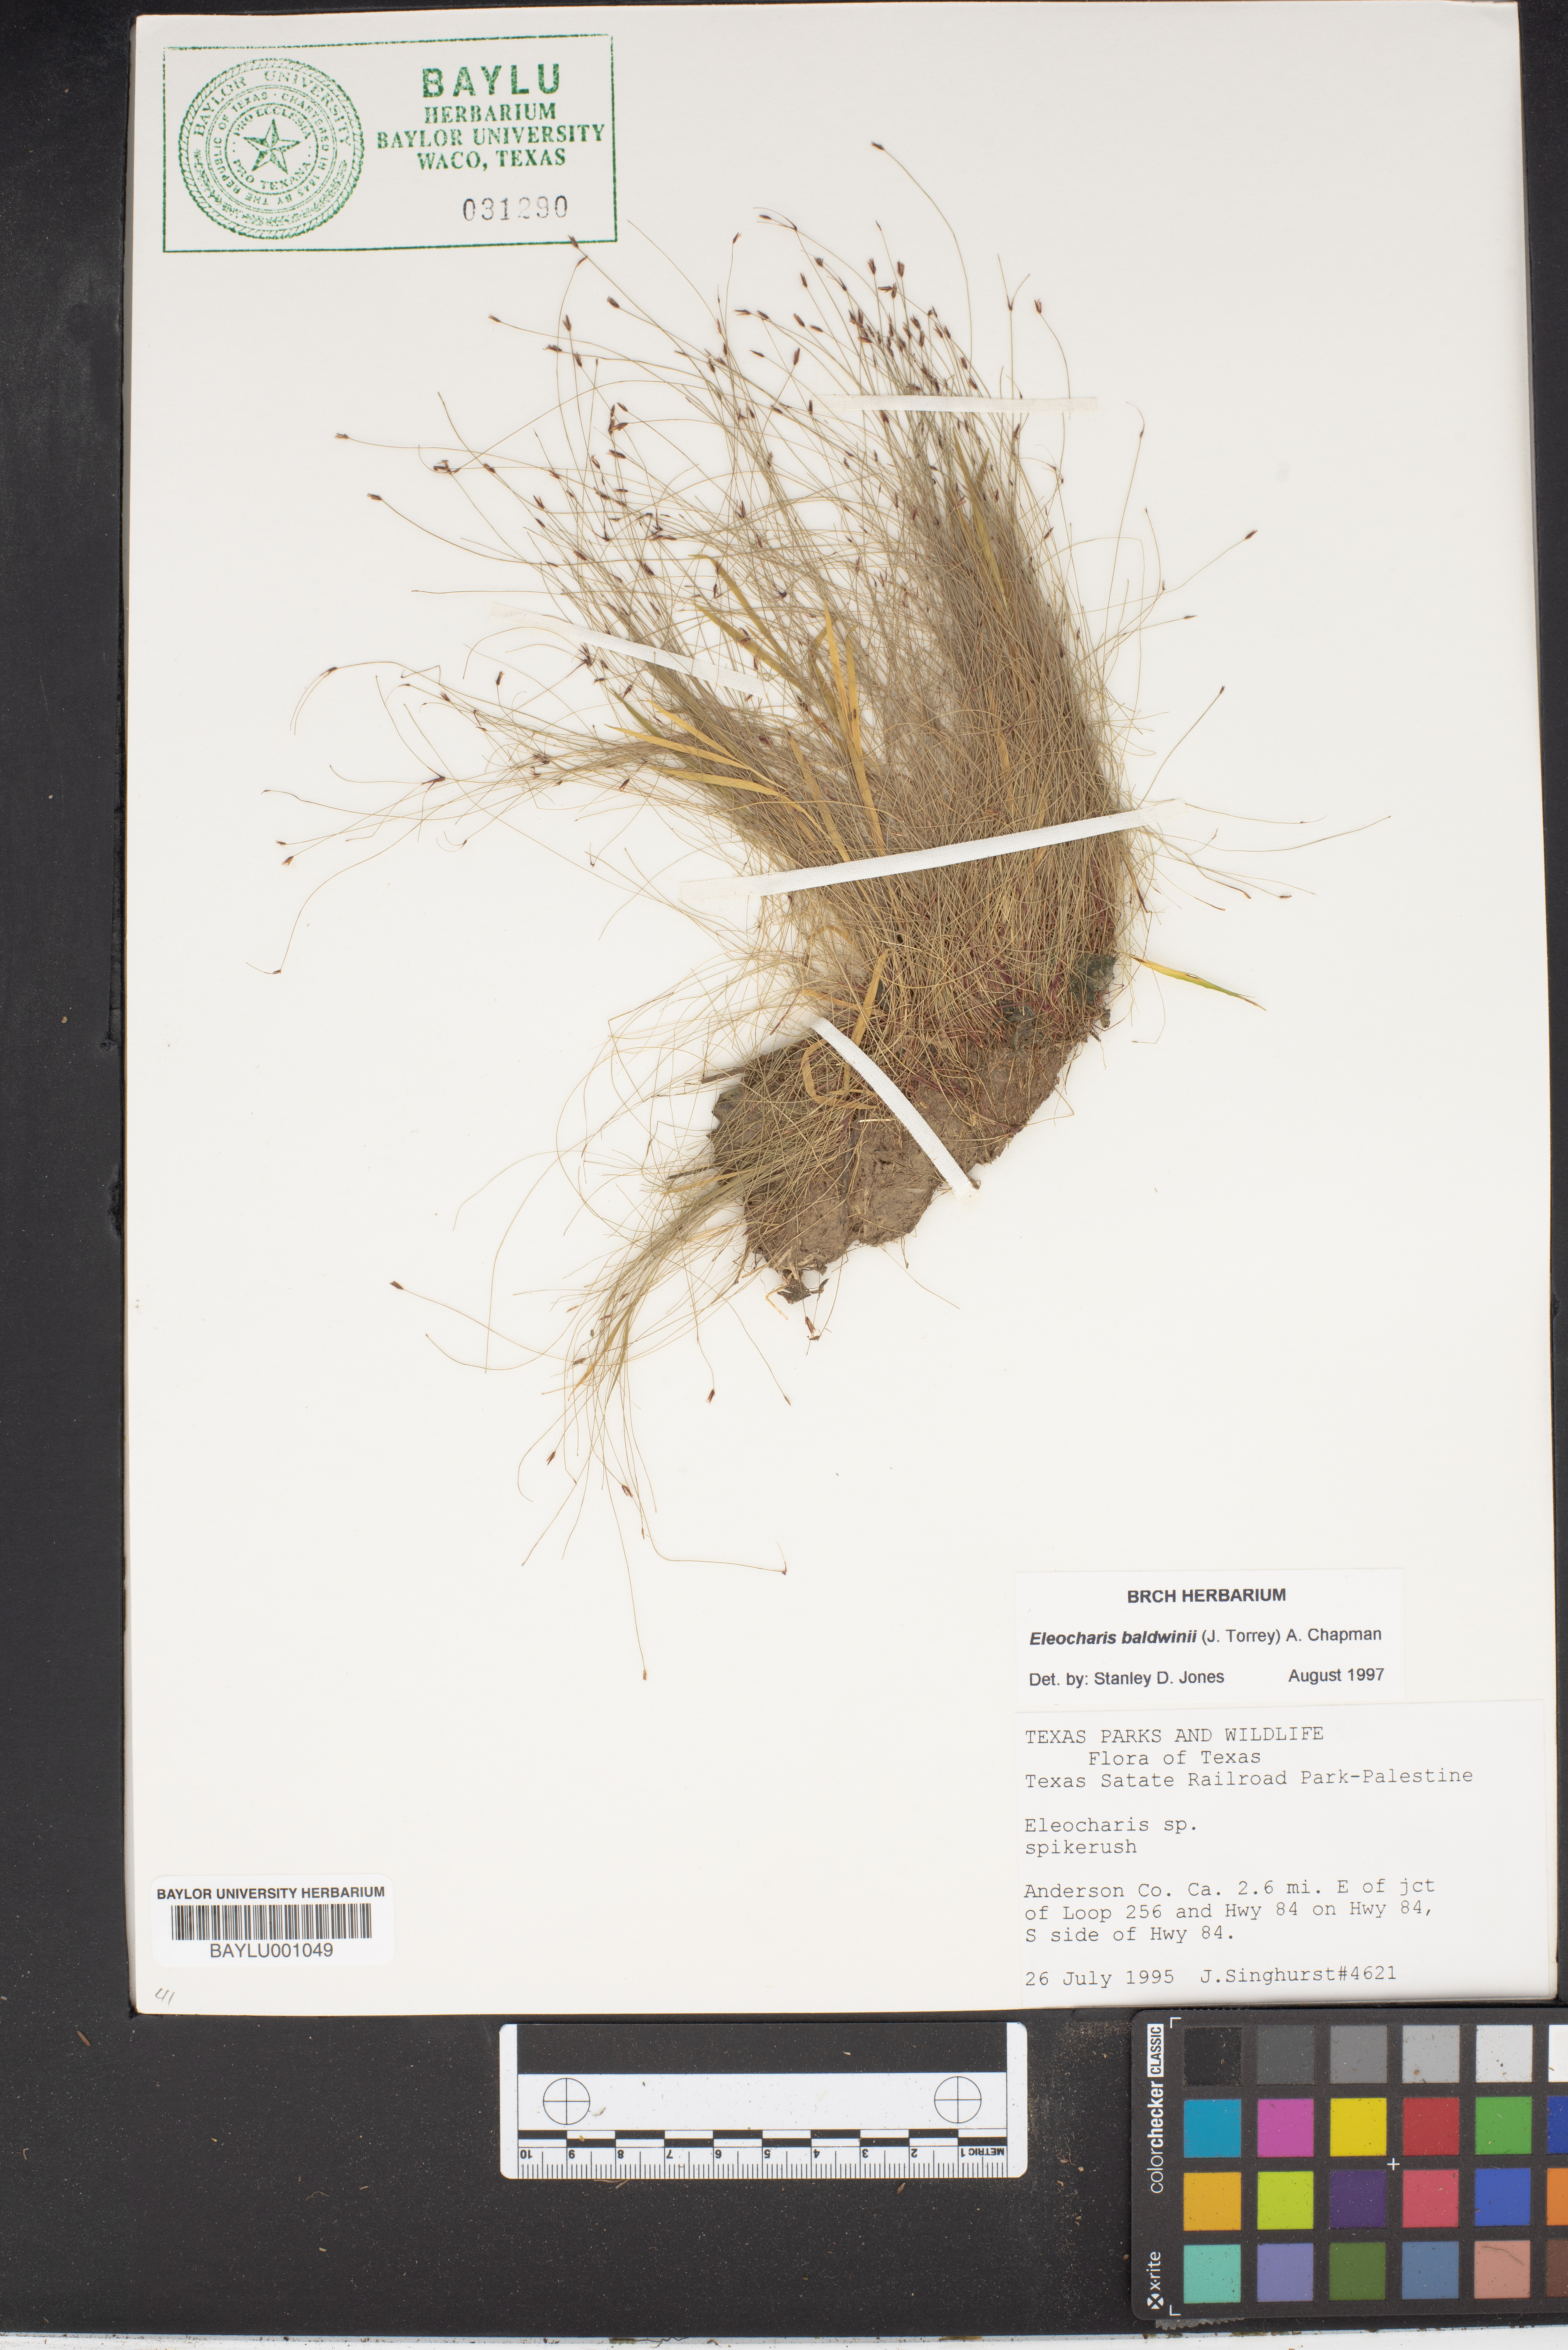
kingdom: Plantae
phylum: Tracheophyta
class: Liliopsida
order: Poales
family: Cyperaceae
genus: Eleocharis
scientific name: Eleocharis
